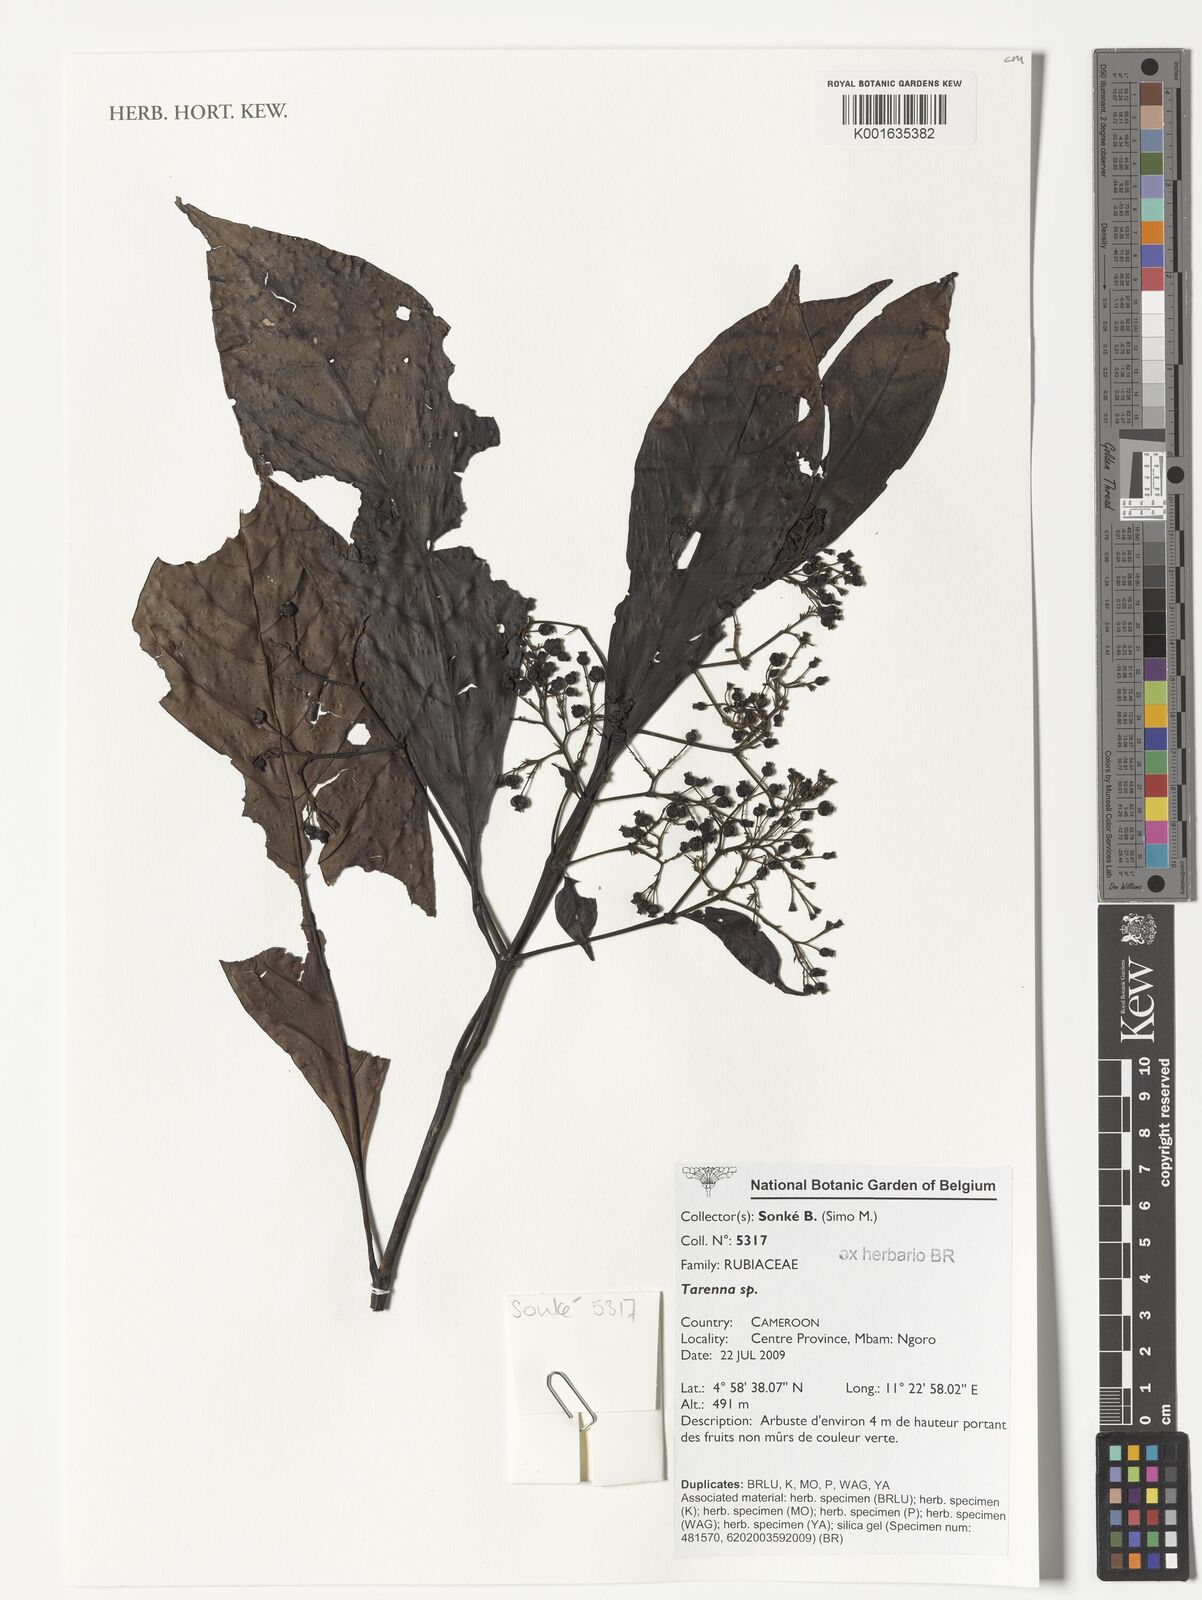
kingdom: Plantae
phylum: Tracheophyta
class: Magnoliopsida
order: Gentianales
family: Rubiaceae
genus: Tarenna
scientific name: Tarenna
